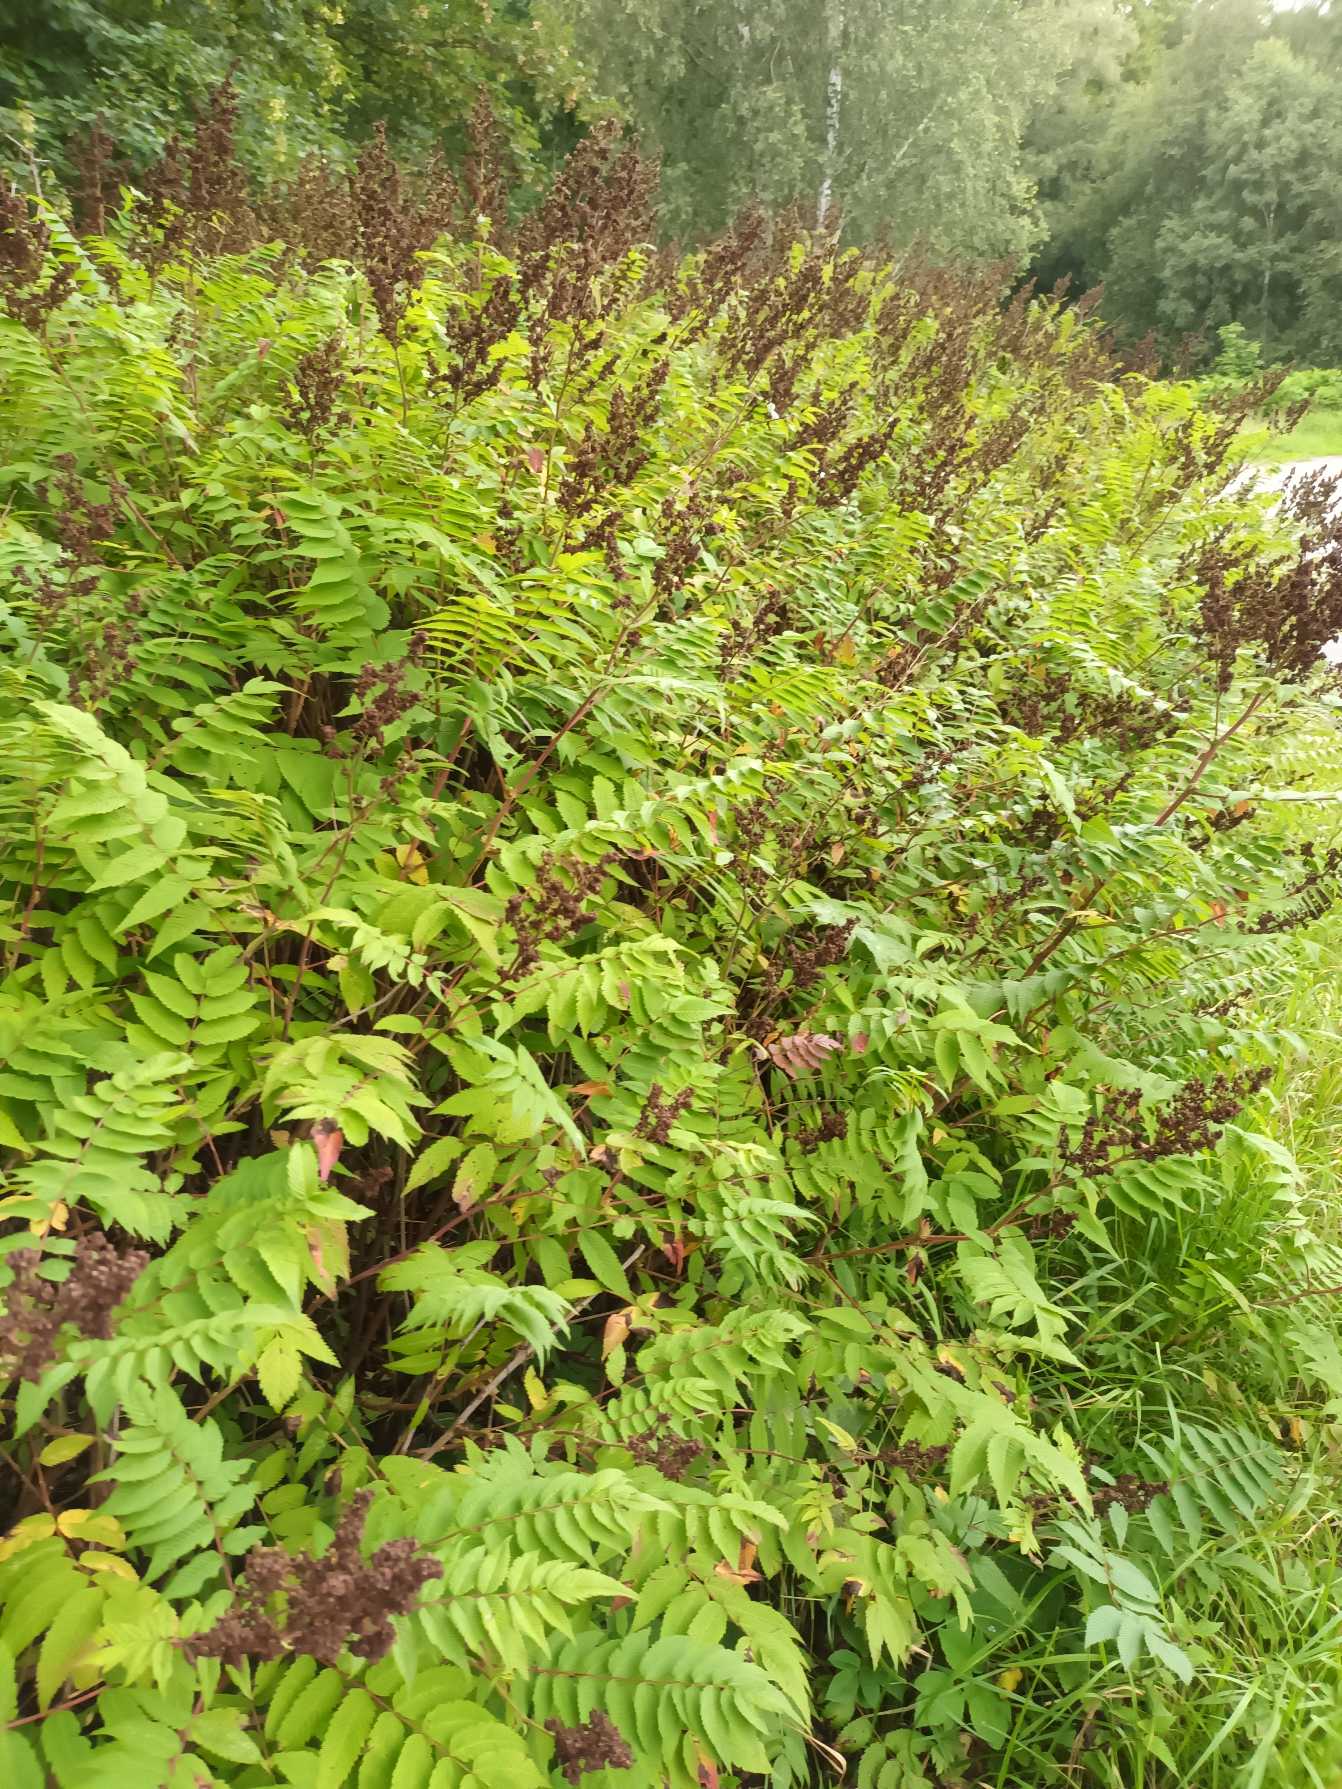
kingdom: Plantae
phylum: Tracheophyta
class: Magnoliopsida
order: Rosales
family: Rosaceae
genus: Sorbaria
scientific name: Sorbaria sorbifolia
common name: Tusindtop
